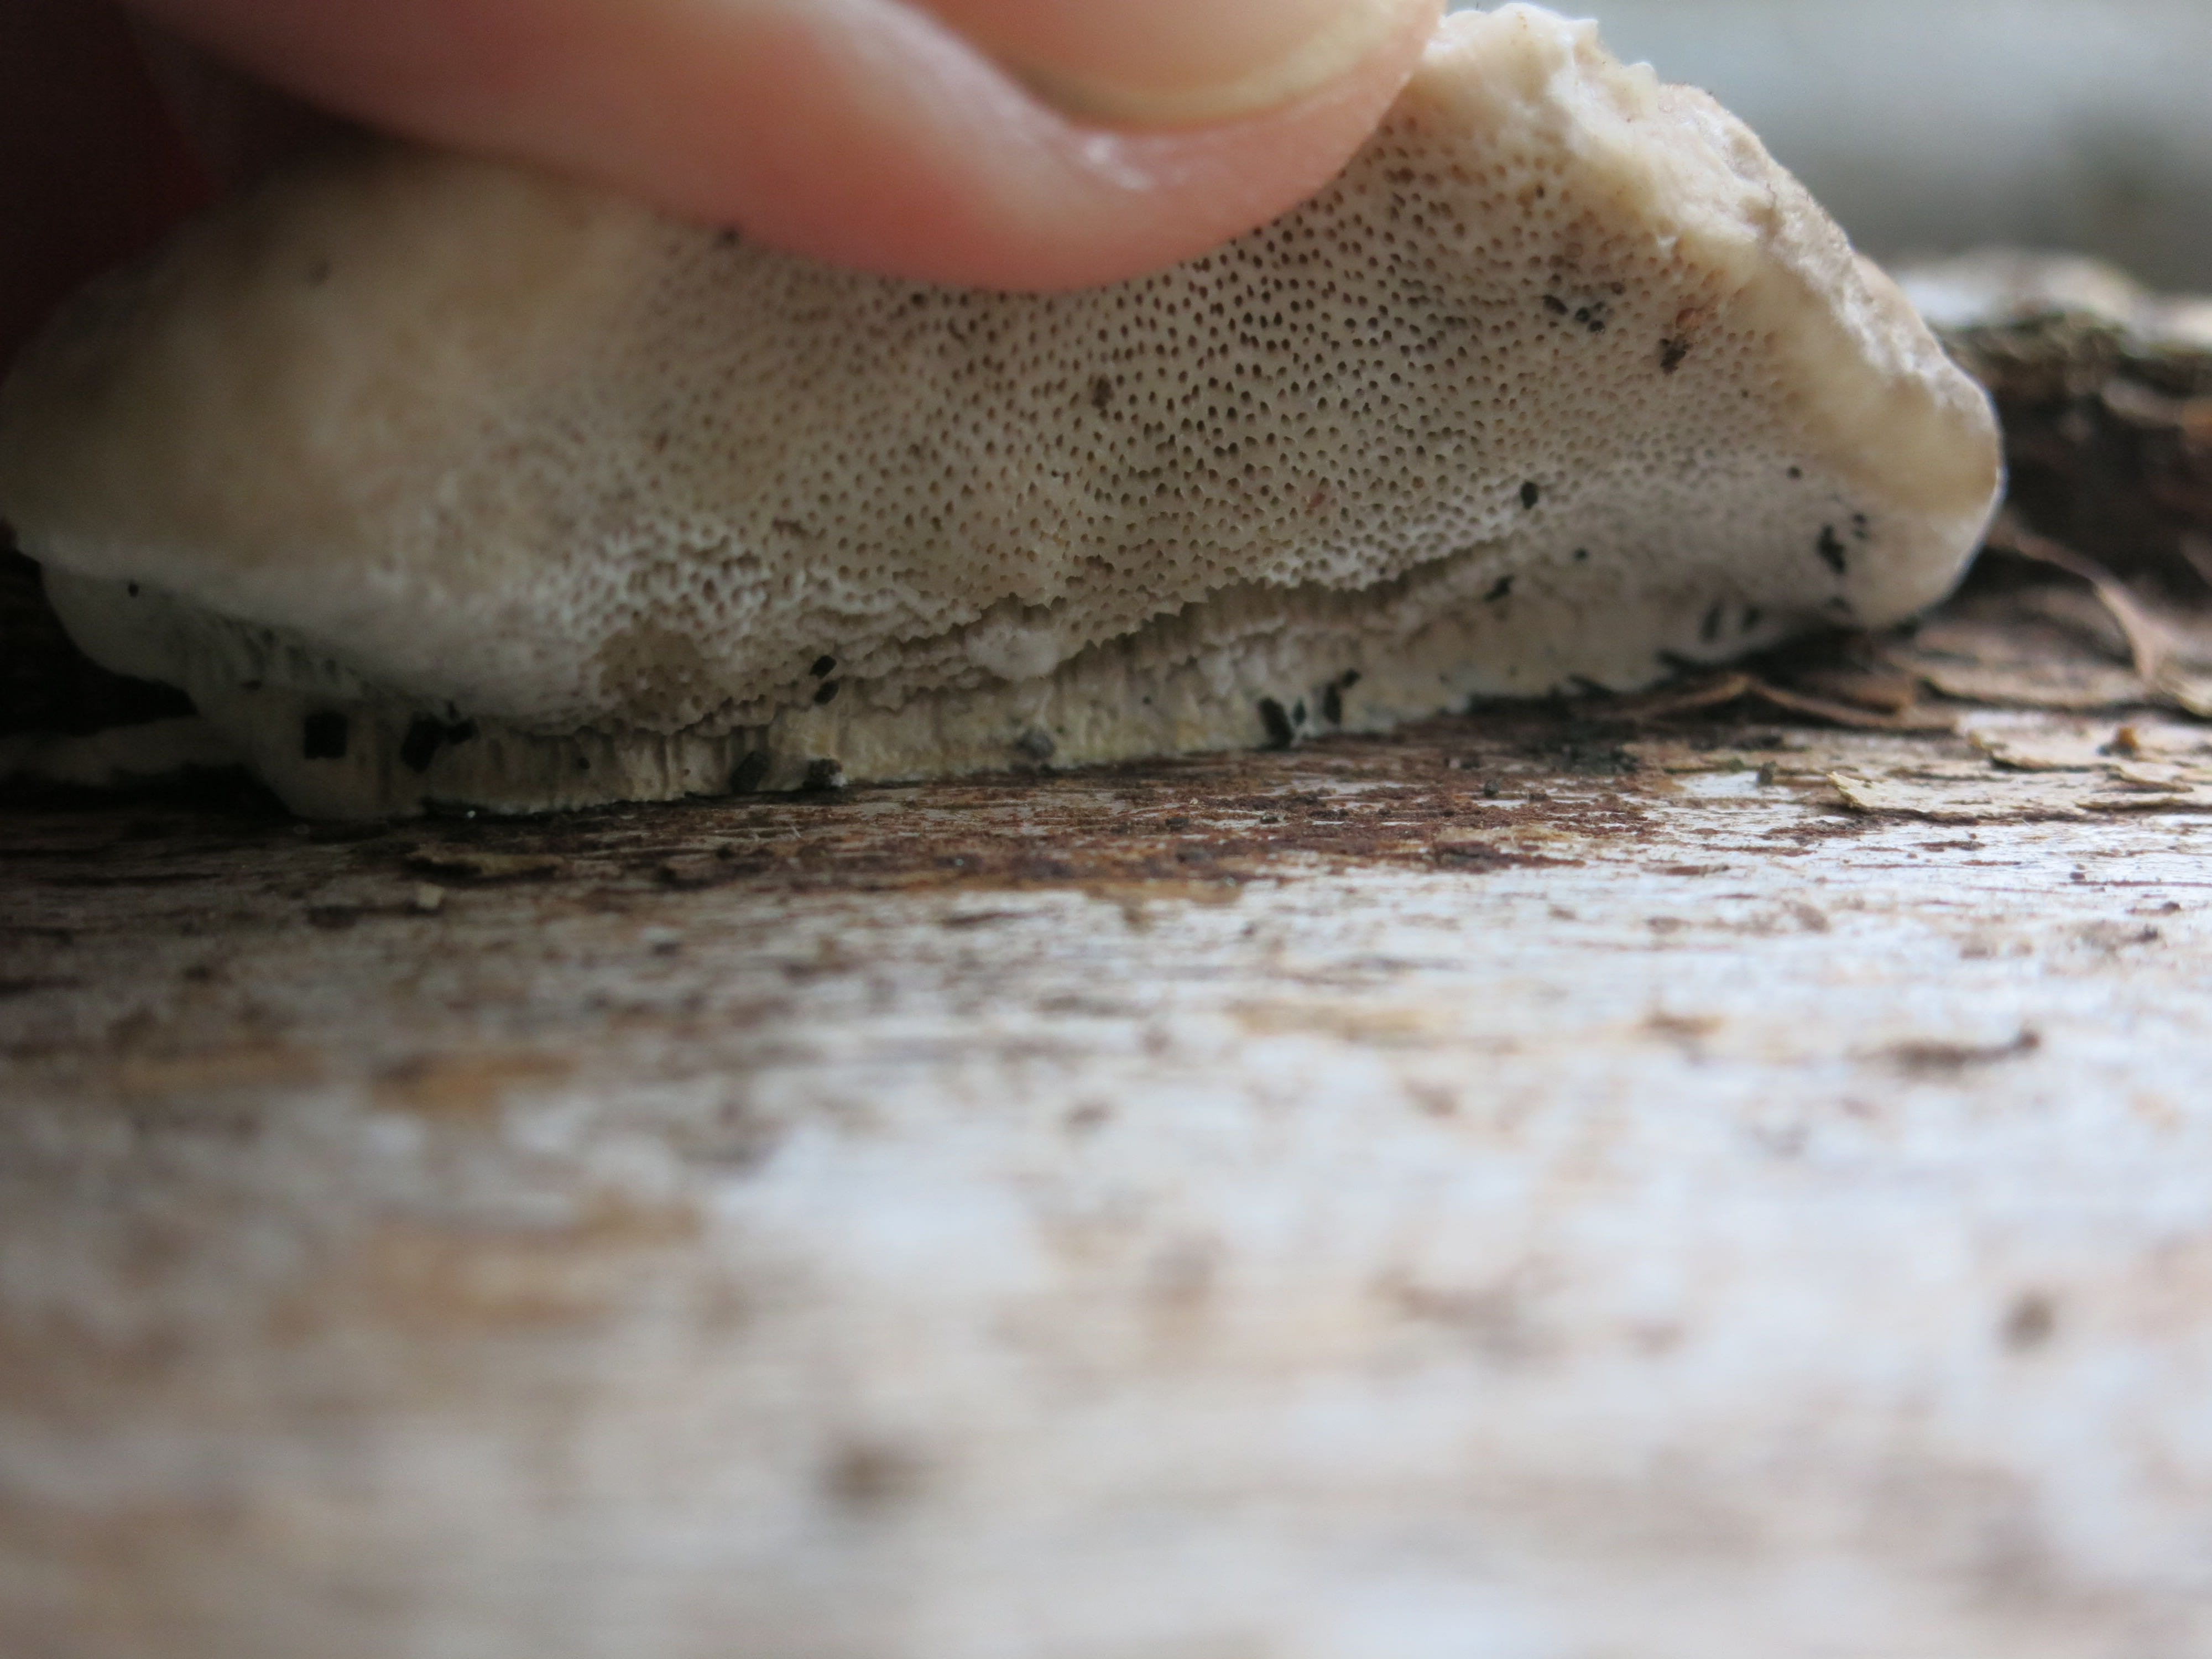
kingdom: Fungi
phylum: Basidiomycota
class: Agaricomycetes
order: Polyporales
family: Polyporaceae
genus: Trametes
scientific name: Trametes hirsuta
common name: håret læderporesvamp
